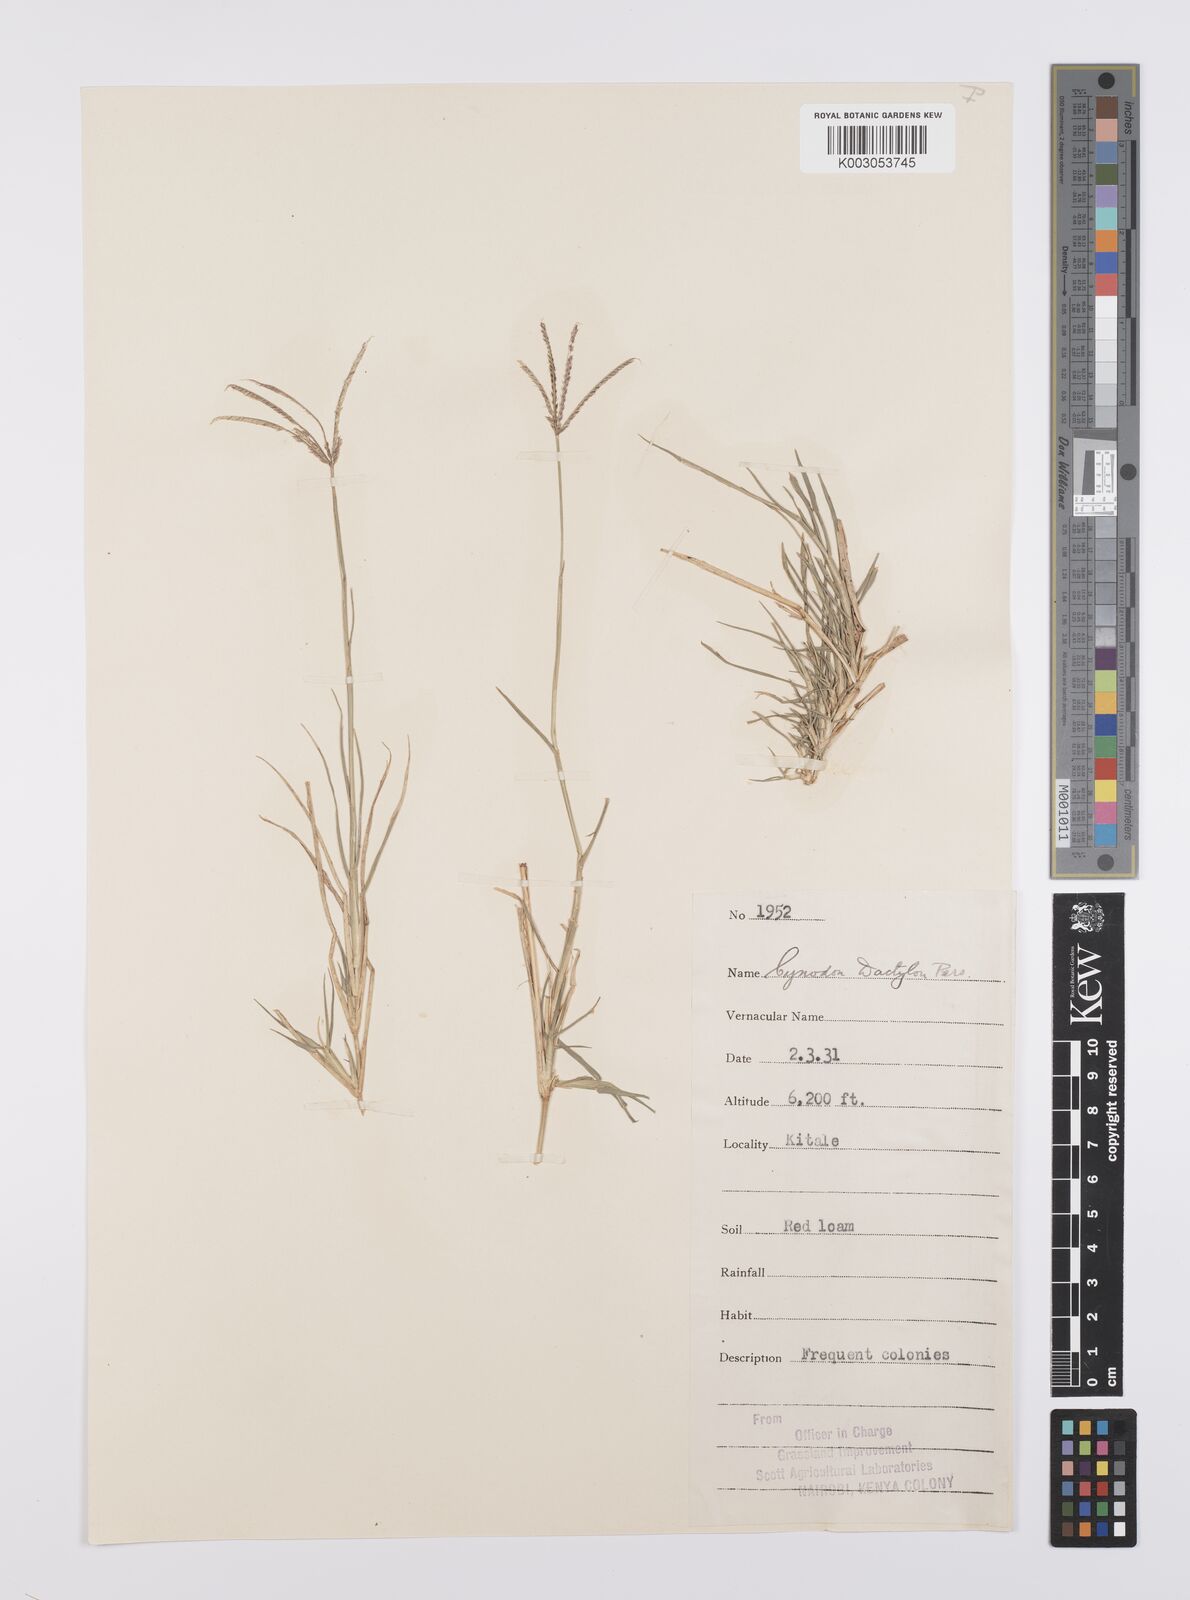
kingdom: Plantae
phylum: Tracheophyta
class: Liliopsida
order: Poales
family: Poaceae
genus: Cynodon
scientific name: Cynodon dactylon
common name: Bermuda grass
